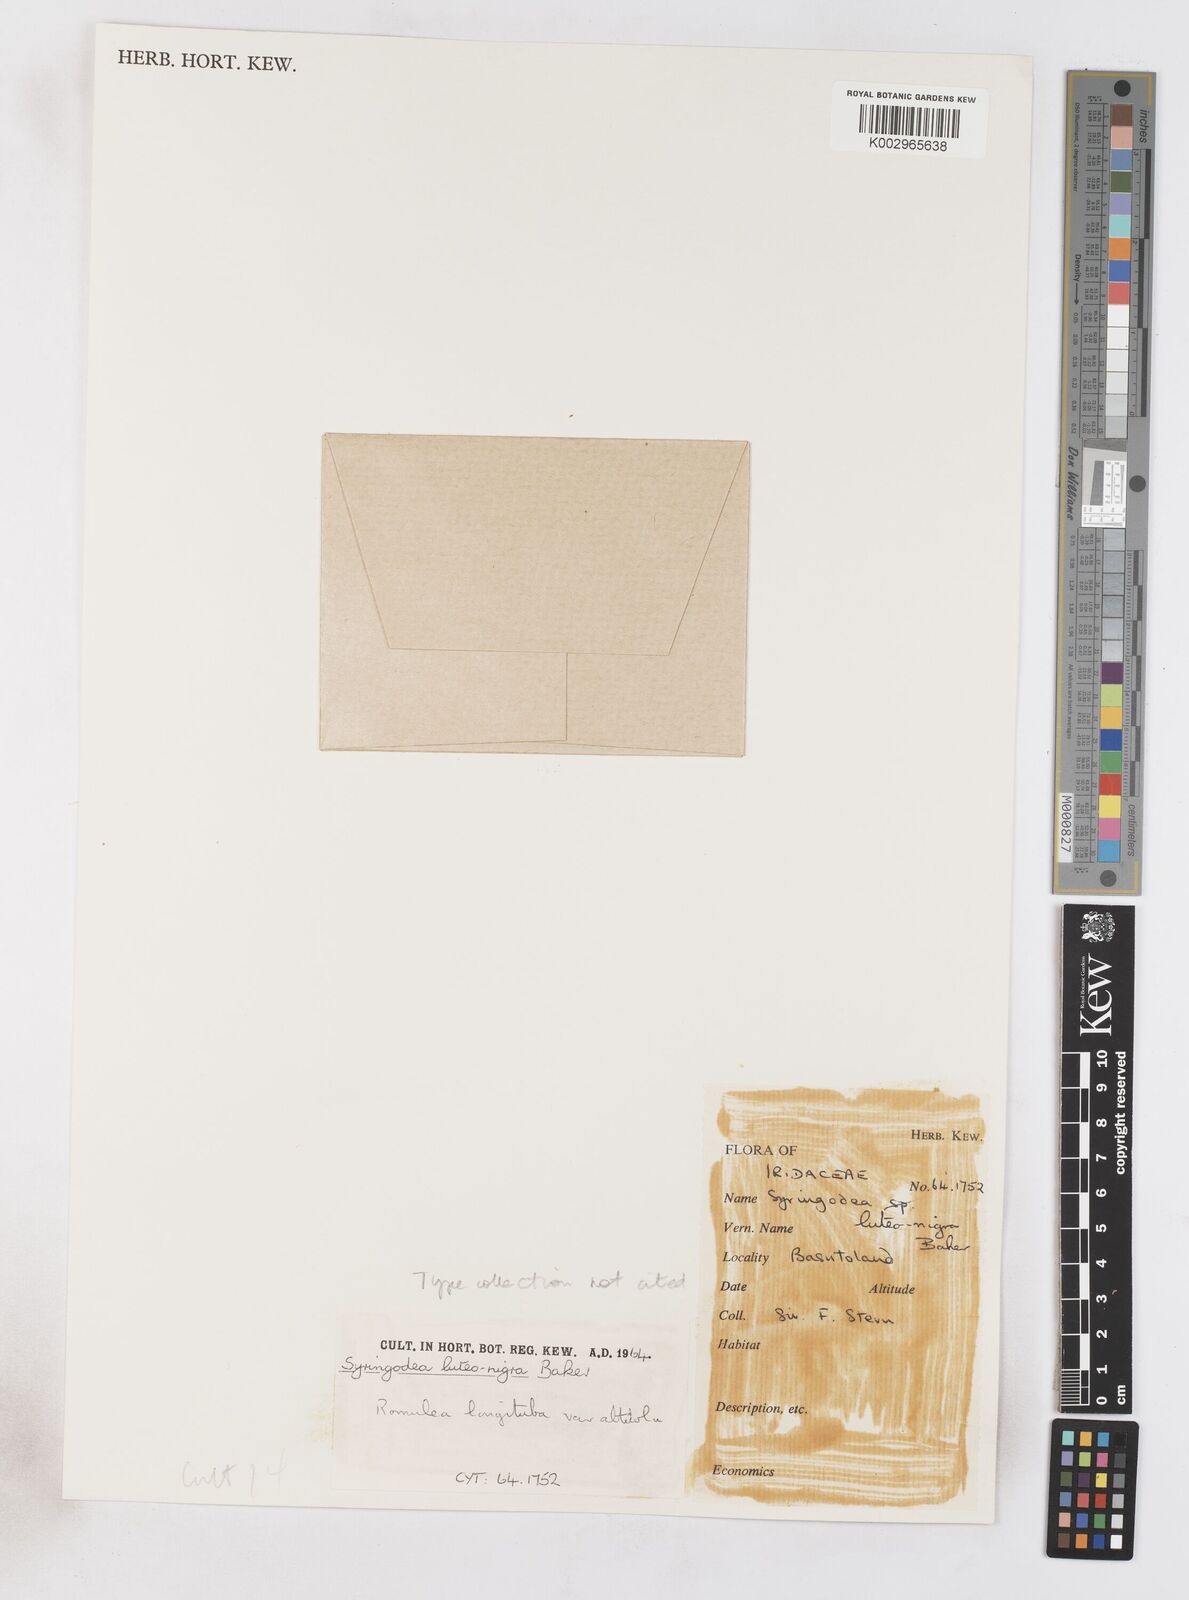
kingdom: Plantae
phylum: Tracheophyta
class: Liliopsida
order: Asparagales
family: Iridaceae
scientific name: Iridaceae
